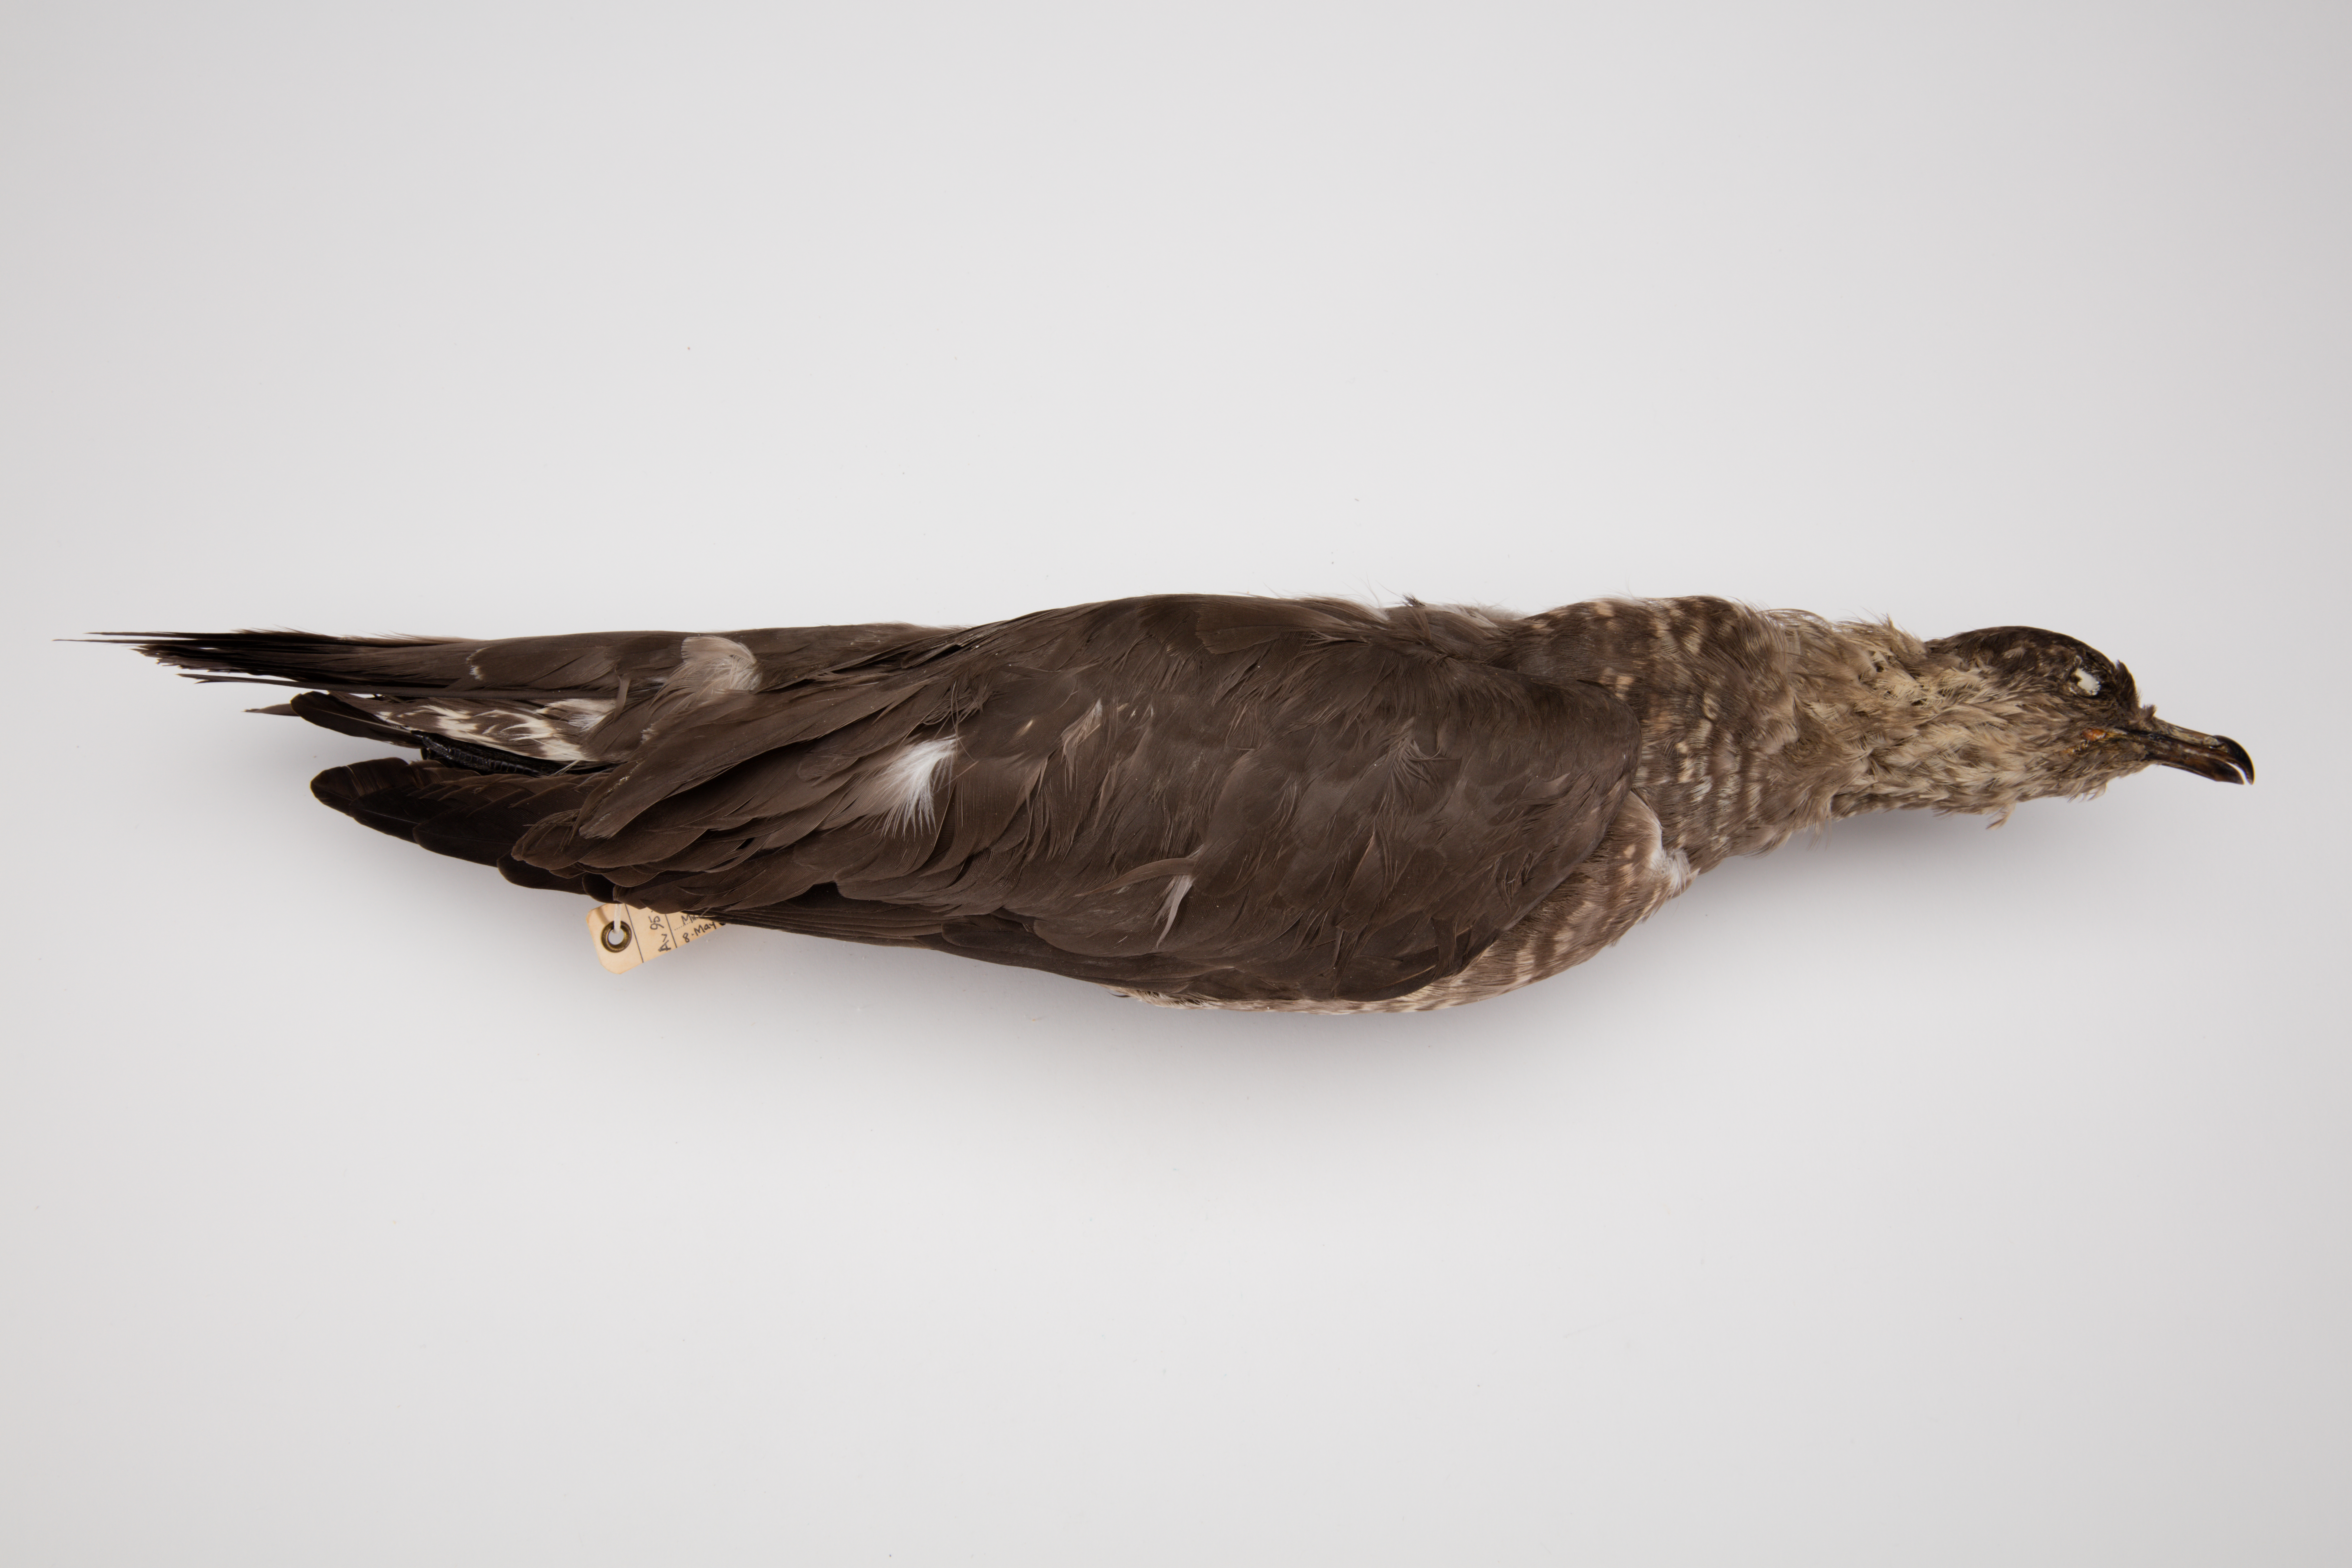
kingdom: Animalia
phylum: Chordata
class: Aves
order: Charadriiformes
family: Stercorariidae
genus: Stercorarius
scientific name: Stercorarius parasiticus
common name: Parasitic jaeger
